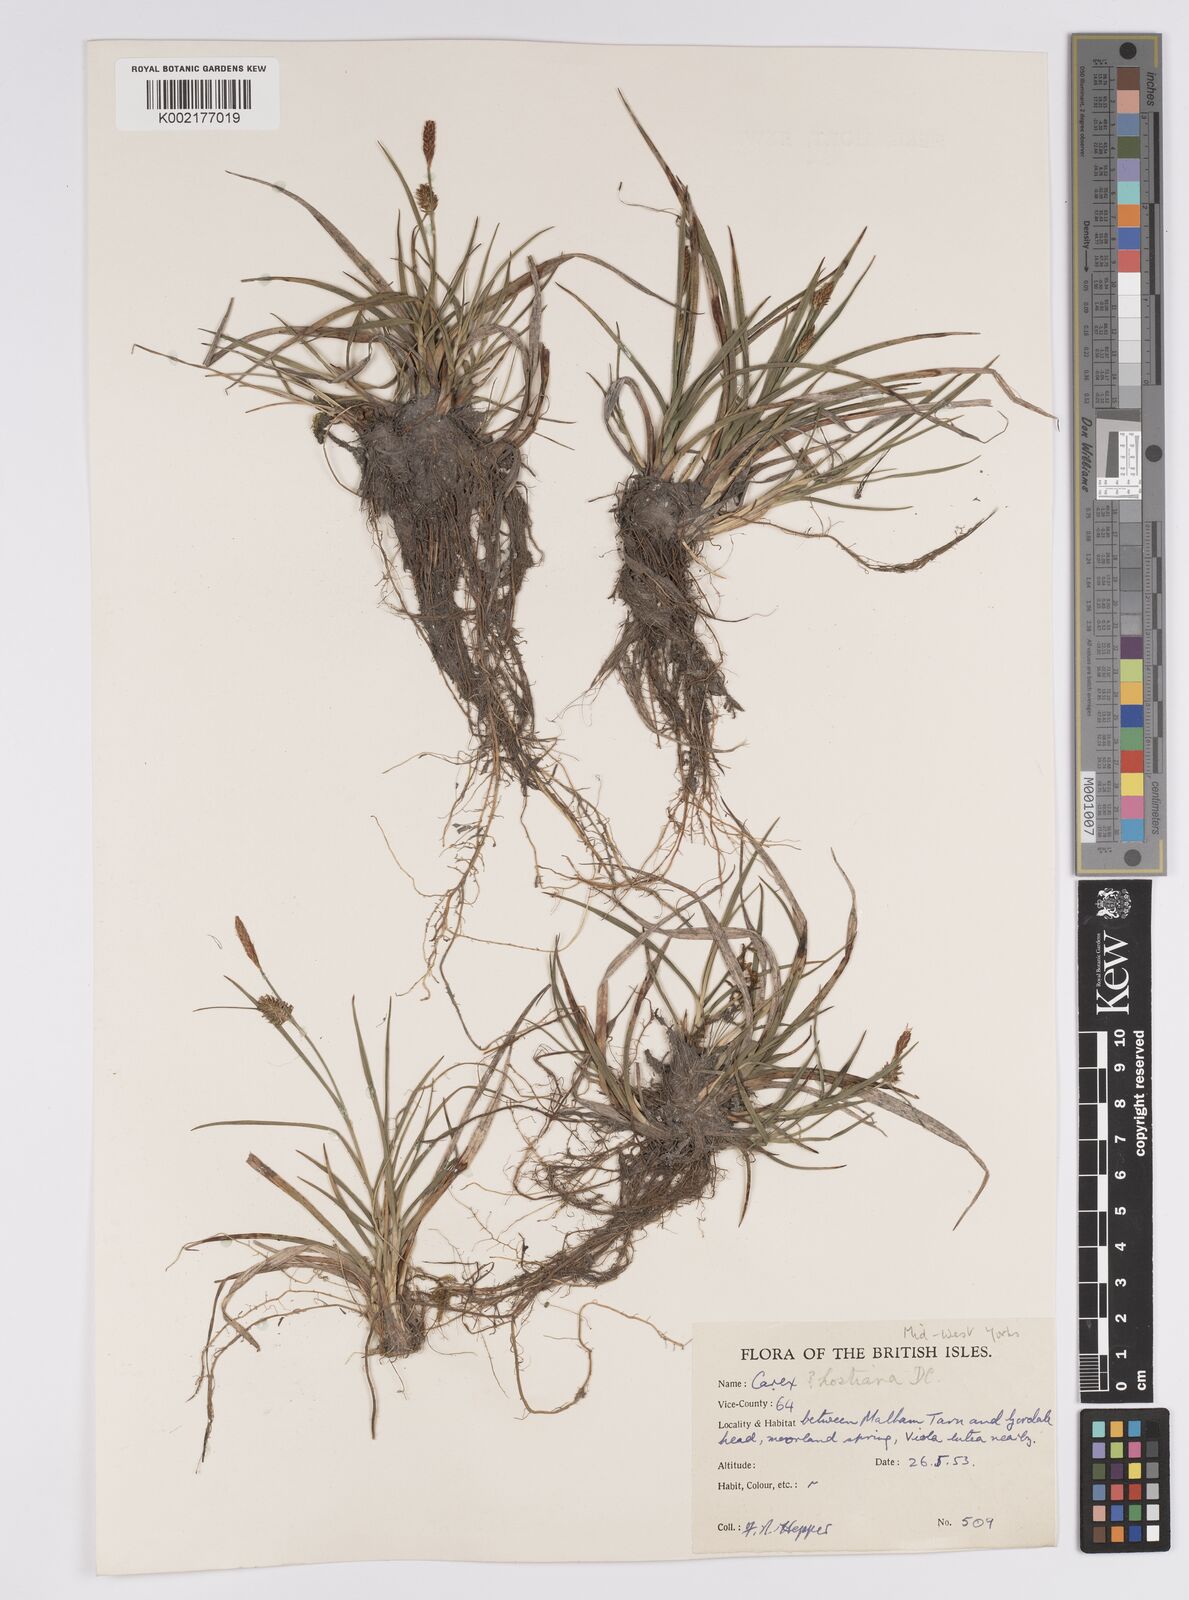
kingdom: Plantae
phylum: Tracheophyta
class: Liliopsida
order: Poales
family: Cyperaceae
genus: Carex
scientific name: Carex hostiana
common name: Tawny sedge
